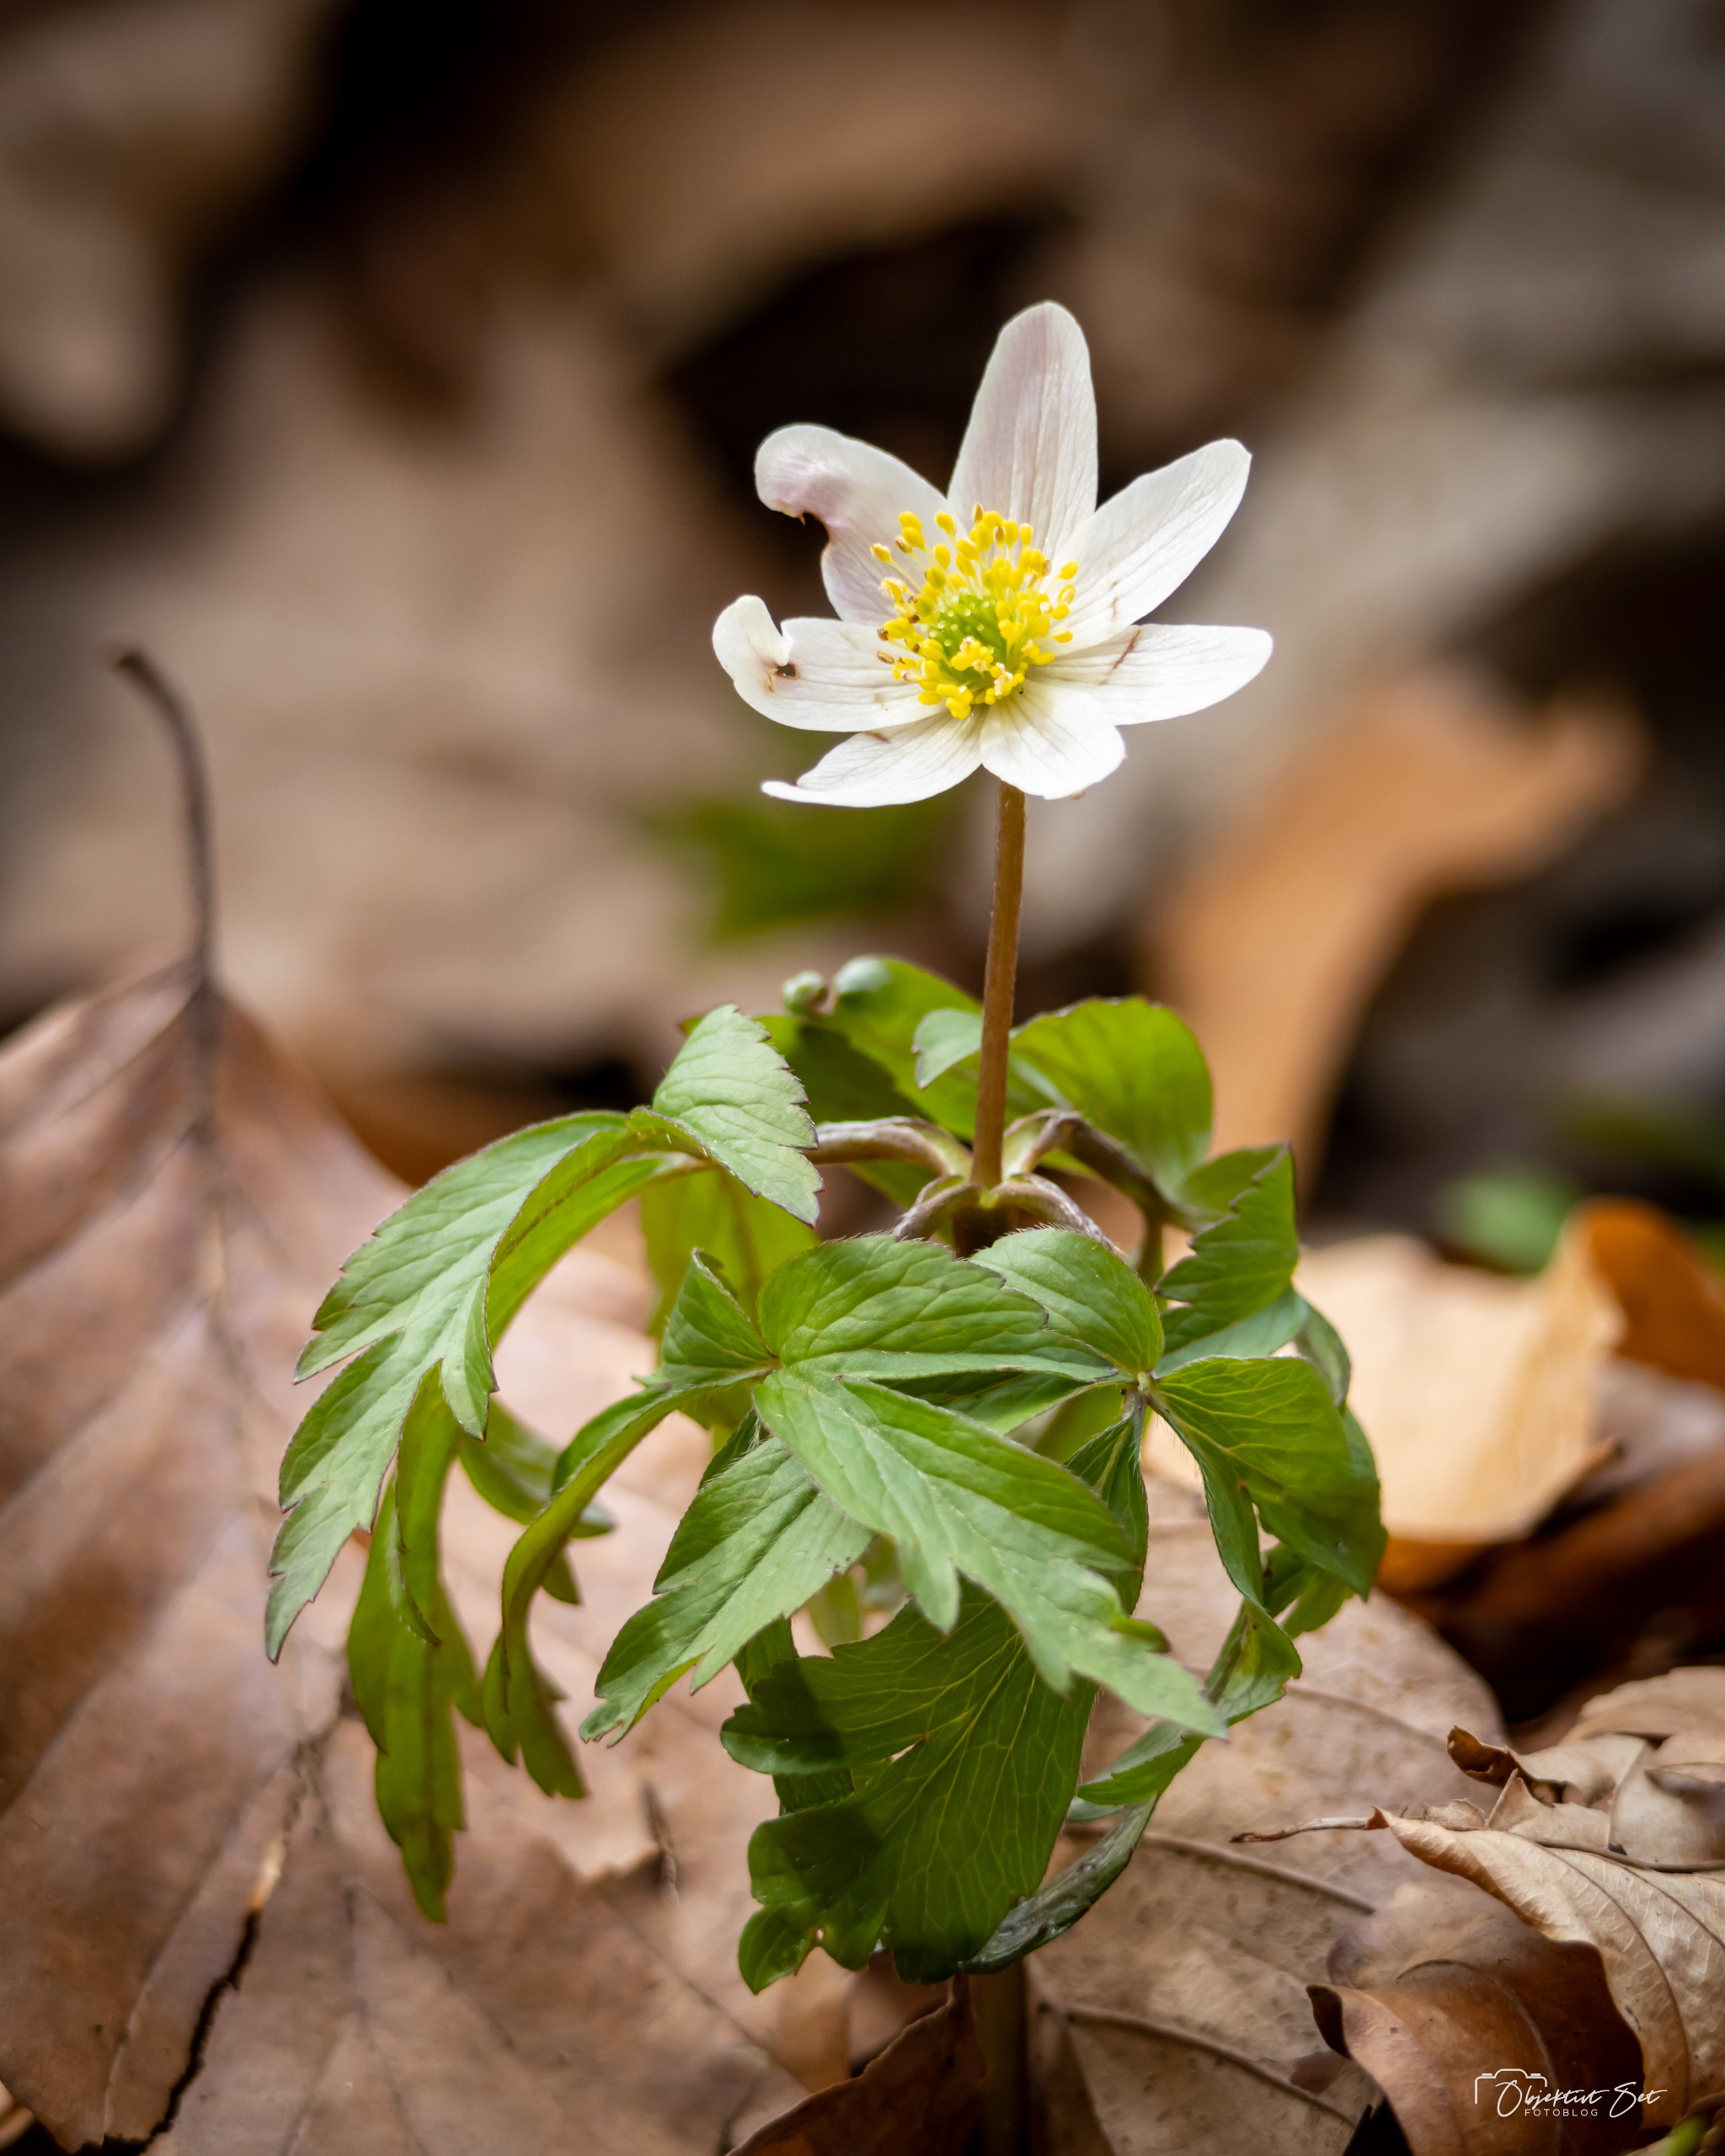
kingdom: Plantae
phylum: Tracheophyta
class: Magnoliopsida
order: Ranunculales
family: Ranunculaceae
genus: Anemone
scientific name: Anemone nemorosa
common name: Hvid anemone
